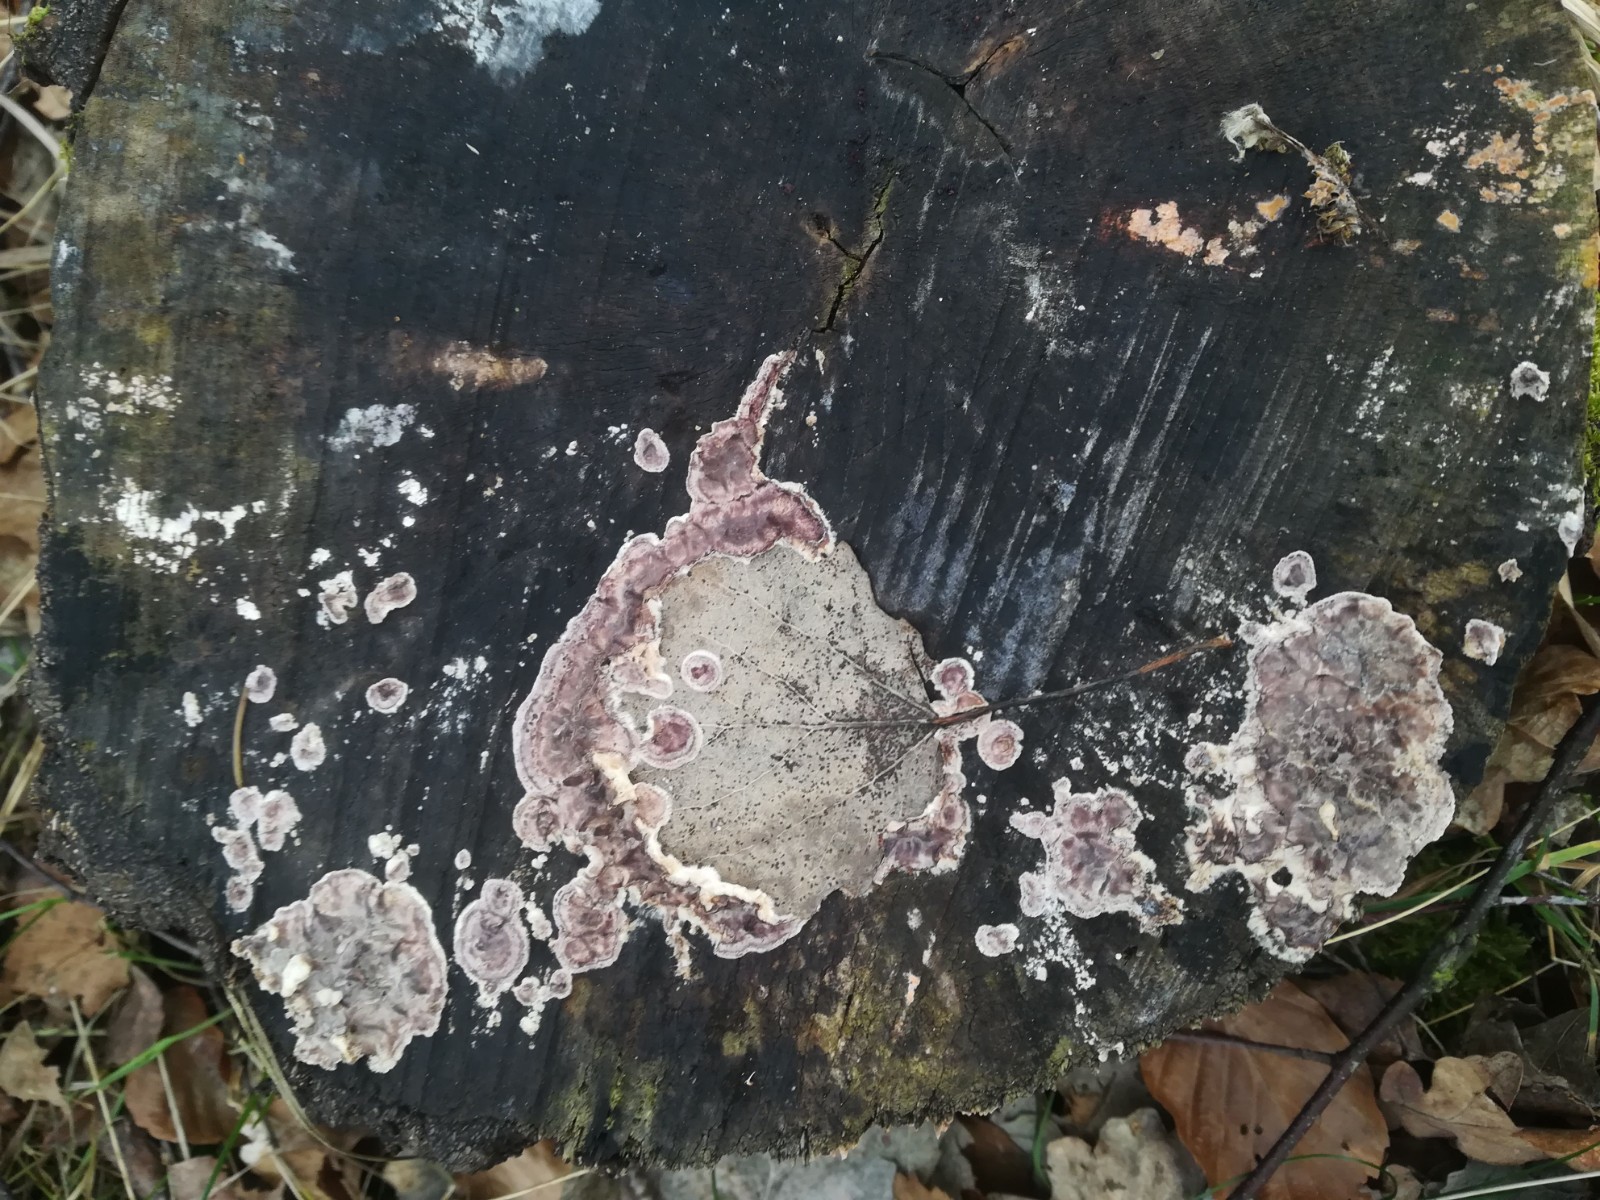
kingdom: Fungi
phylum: Basidiomycota
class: Agaricomycetes
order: Agaricales
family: Cyphellaceae
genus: Chondrostereum
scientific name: Chondrostereum purpureum
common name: purpurlædersvamp
